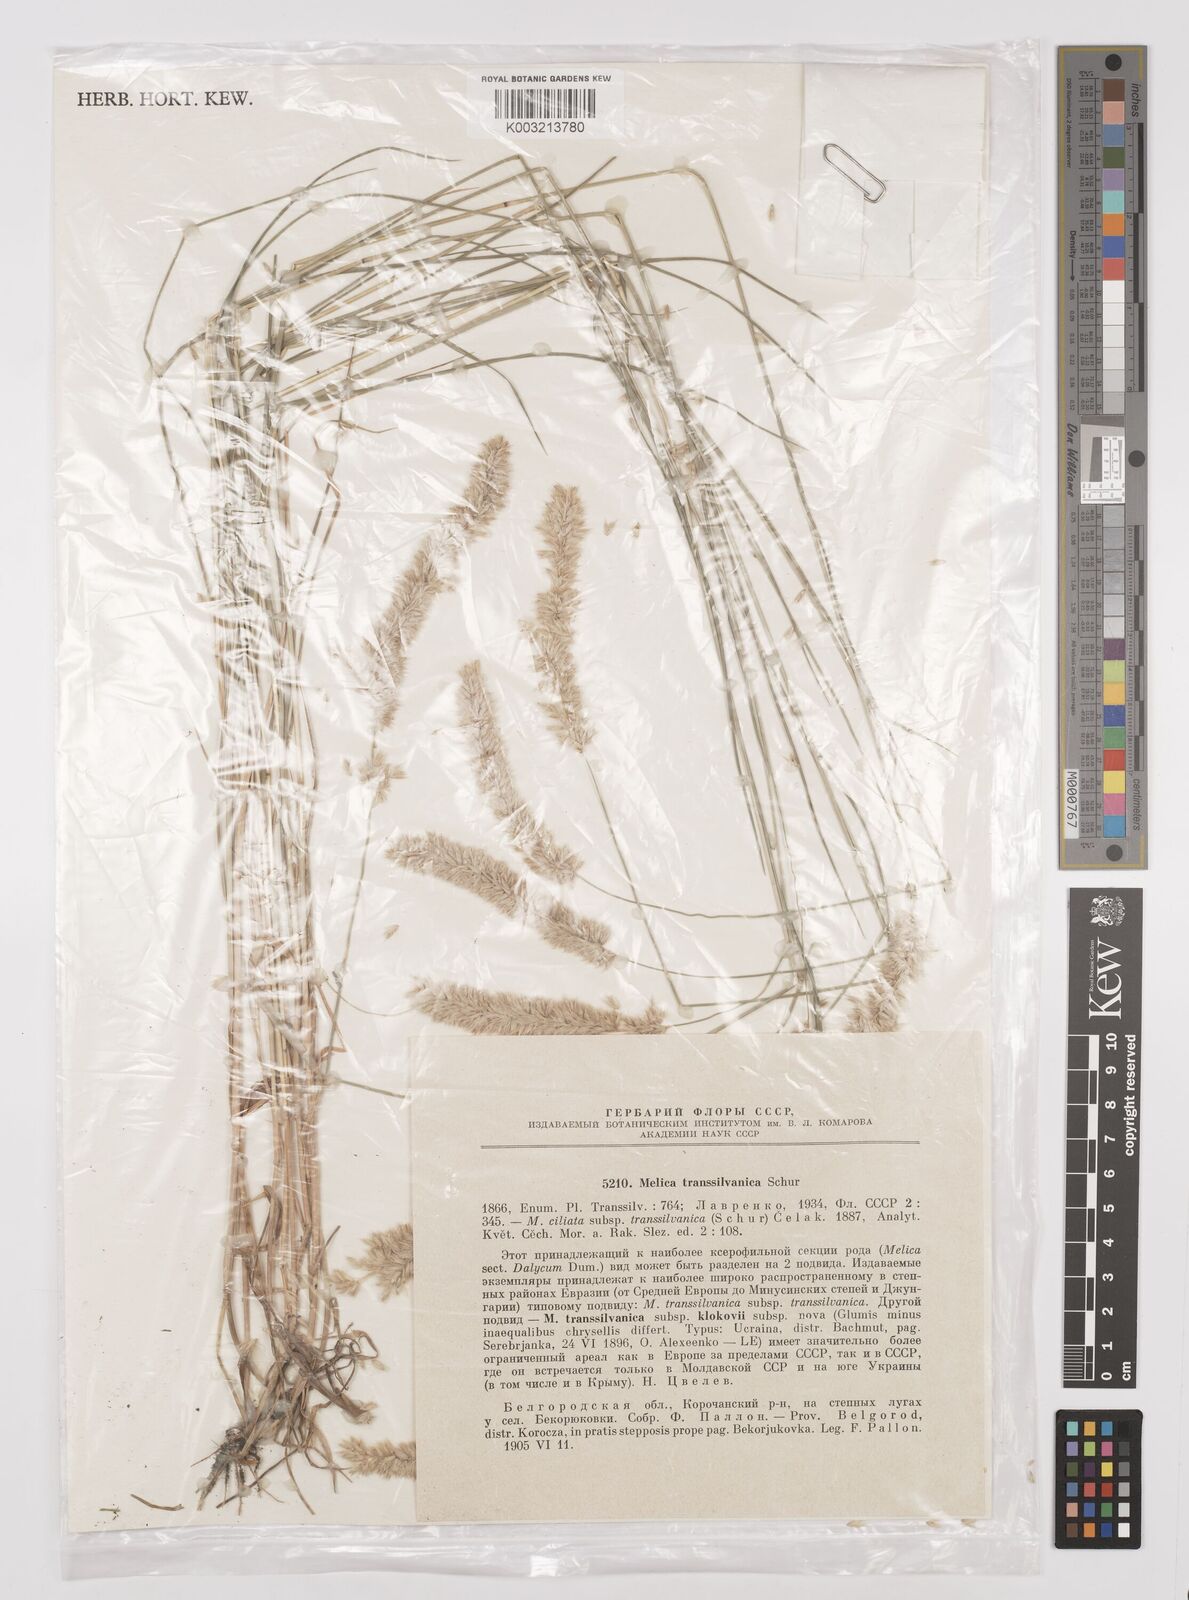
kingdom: Plantae
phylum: Tracheophyta
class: Liliopsida
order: Poales
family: Poaceae
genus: Melica
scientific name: Melica transsilvanica
